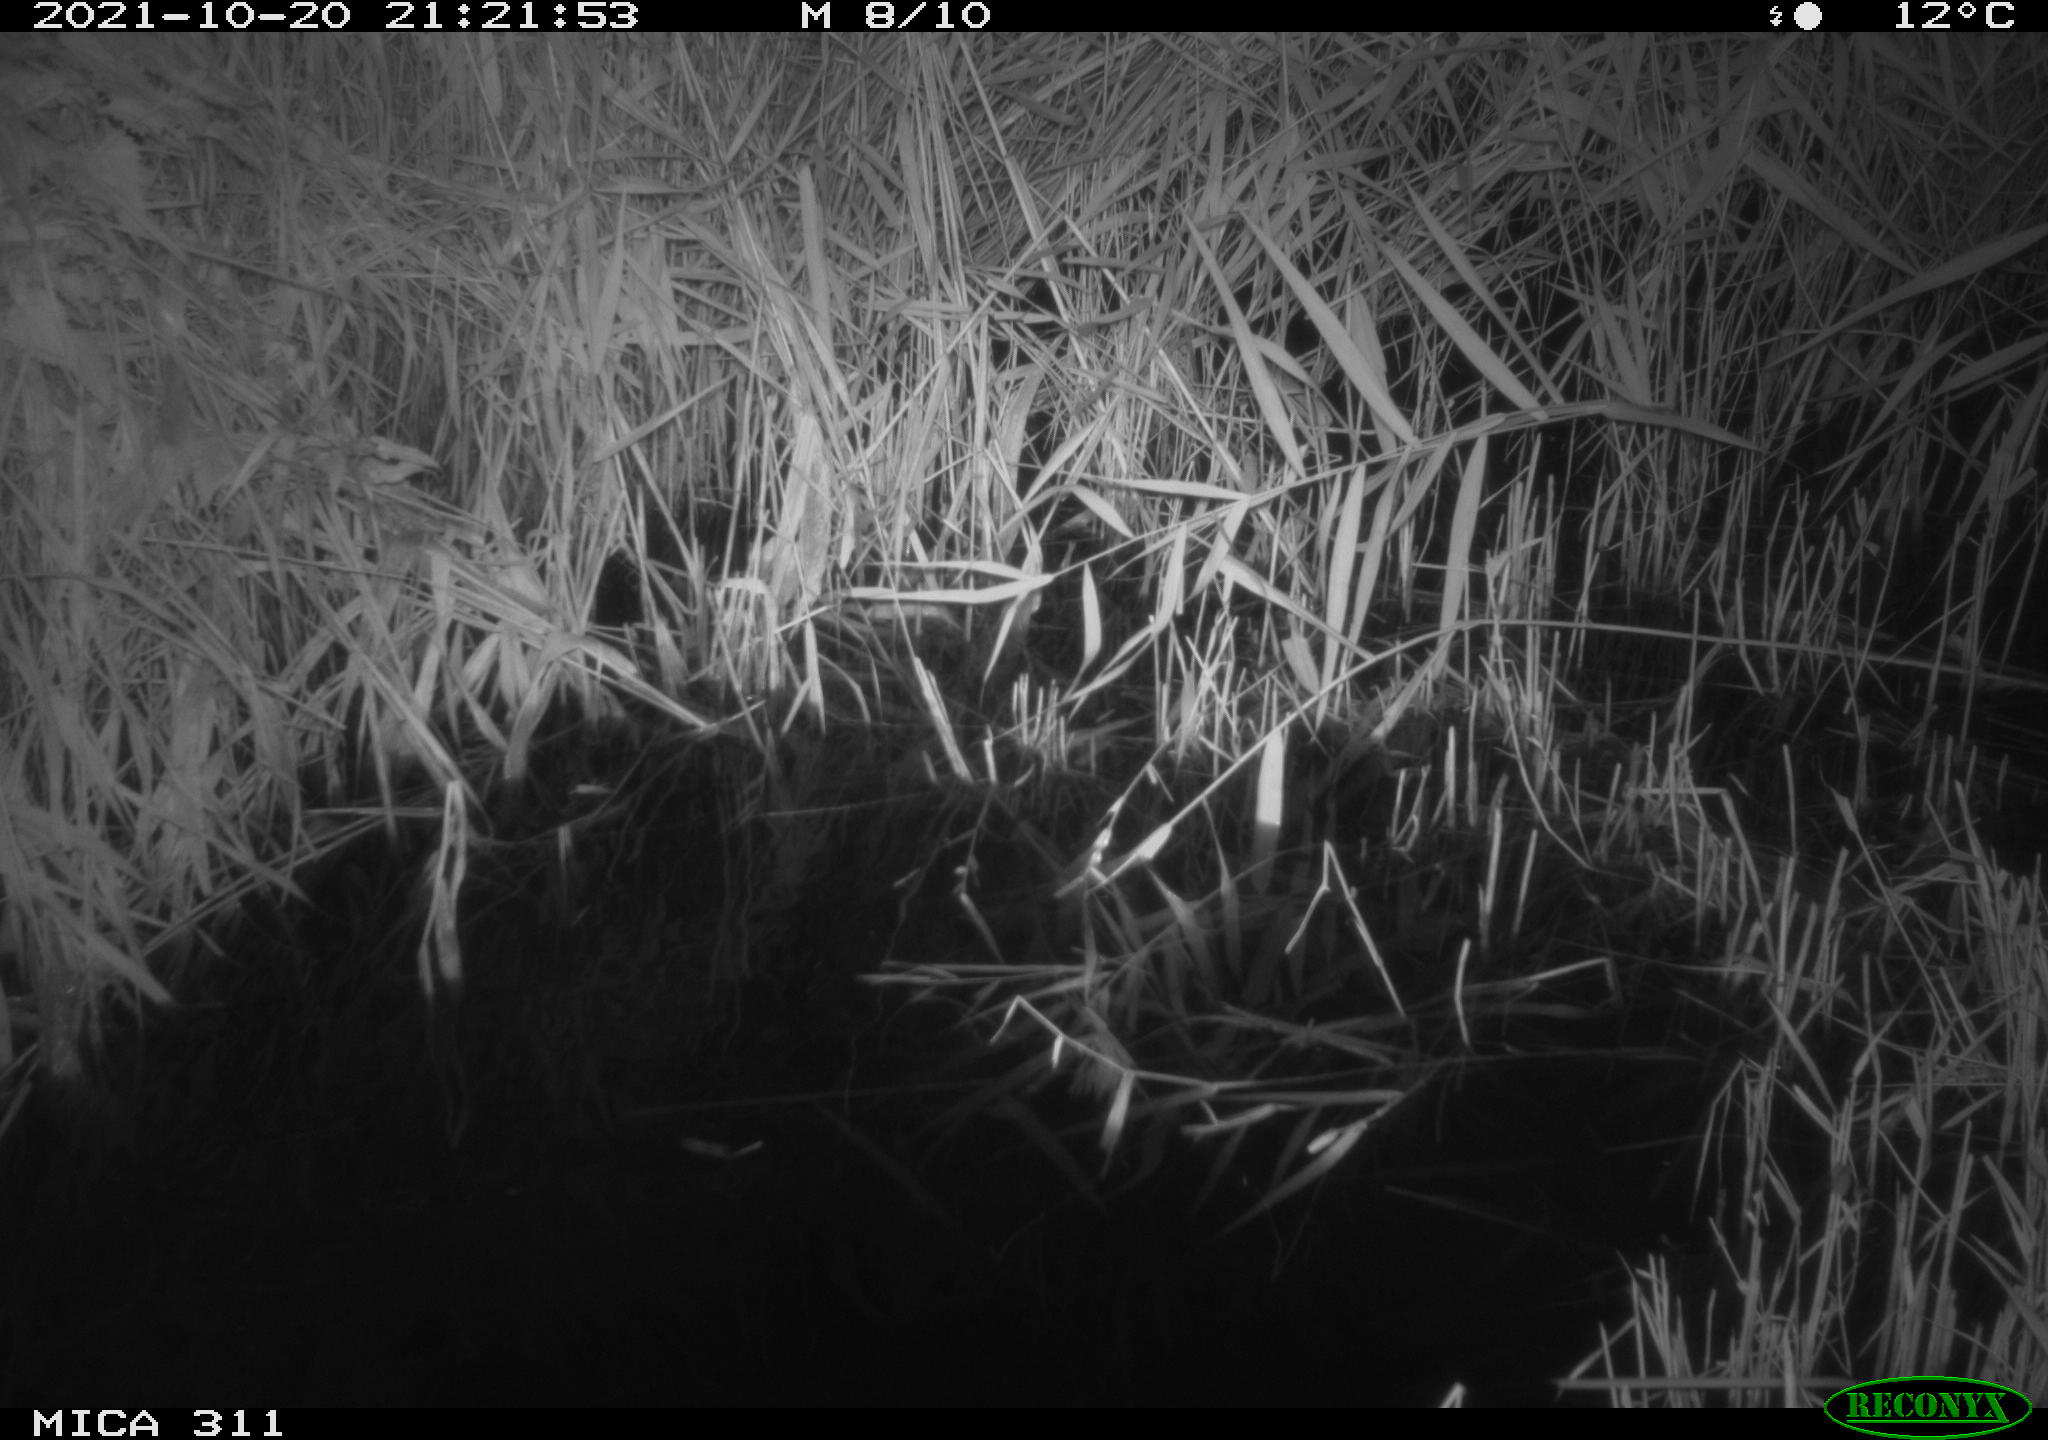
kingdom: Animalia
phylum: Chordata
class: Mammalia
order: Rodentia
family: Muridae
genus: Rattus
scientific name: Rattus norvegicus
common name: Brown rat
